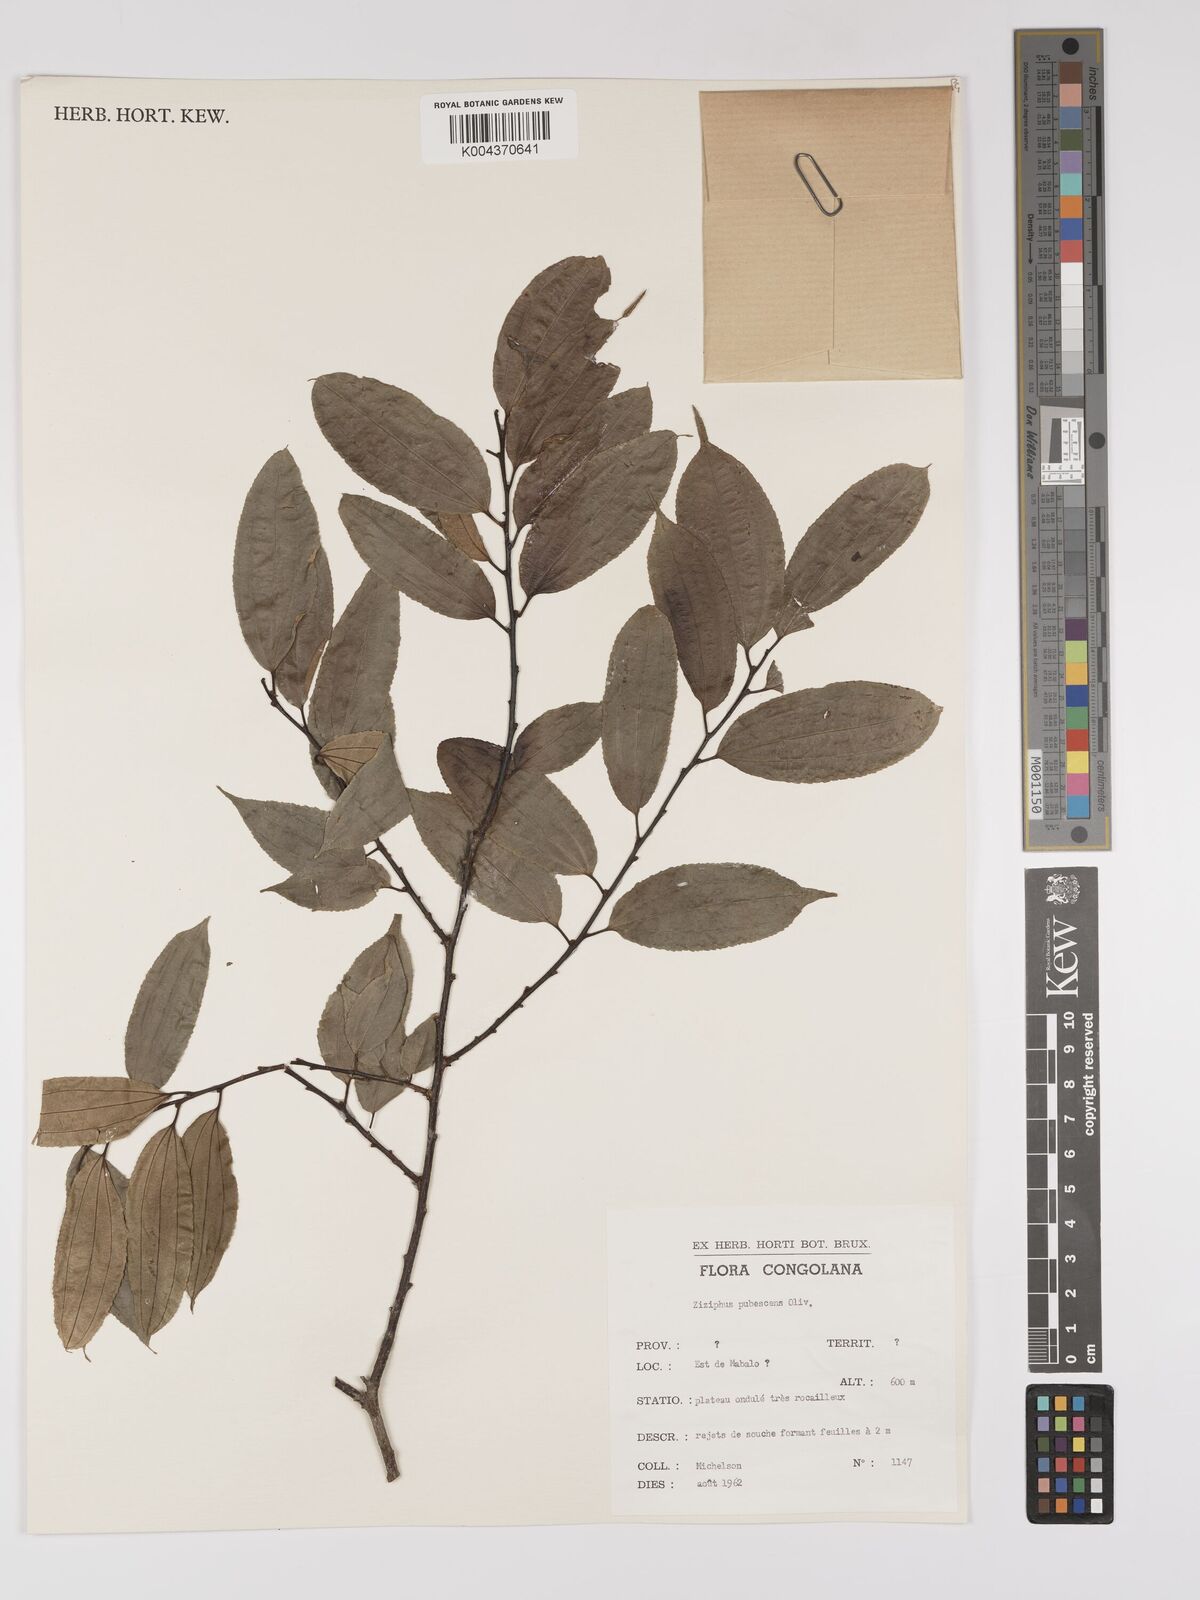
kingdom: Plantae
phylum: Tracheophyta
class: Magnoliopsida
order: Rosales
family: Rhamnaceae
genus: Ziziphus
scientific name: Ziziphus pubescens
